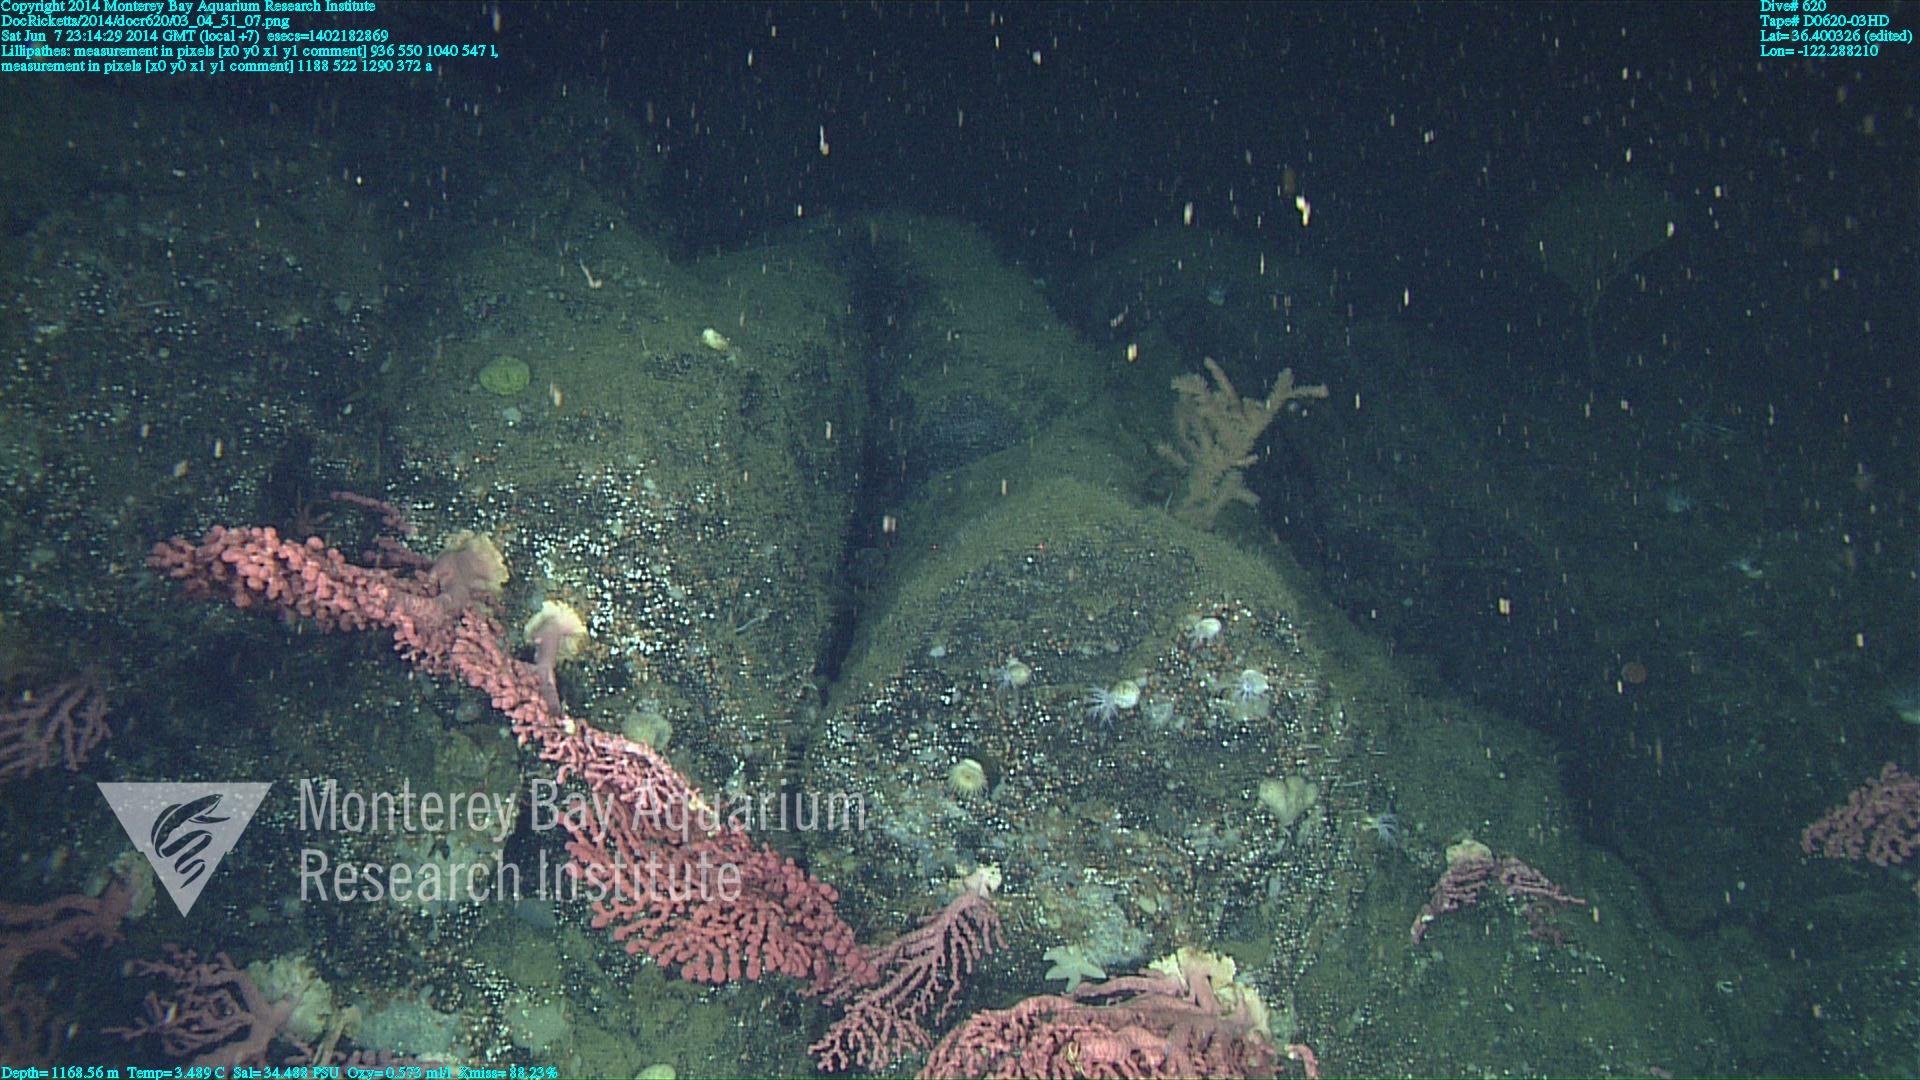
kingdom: Animalia
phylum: Cnidaria
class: Anthozoa
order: Antipatharia
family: Schizopathidae
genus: Lillipathes
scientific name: Lillipathes
